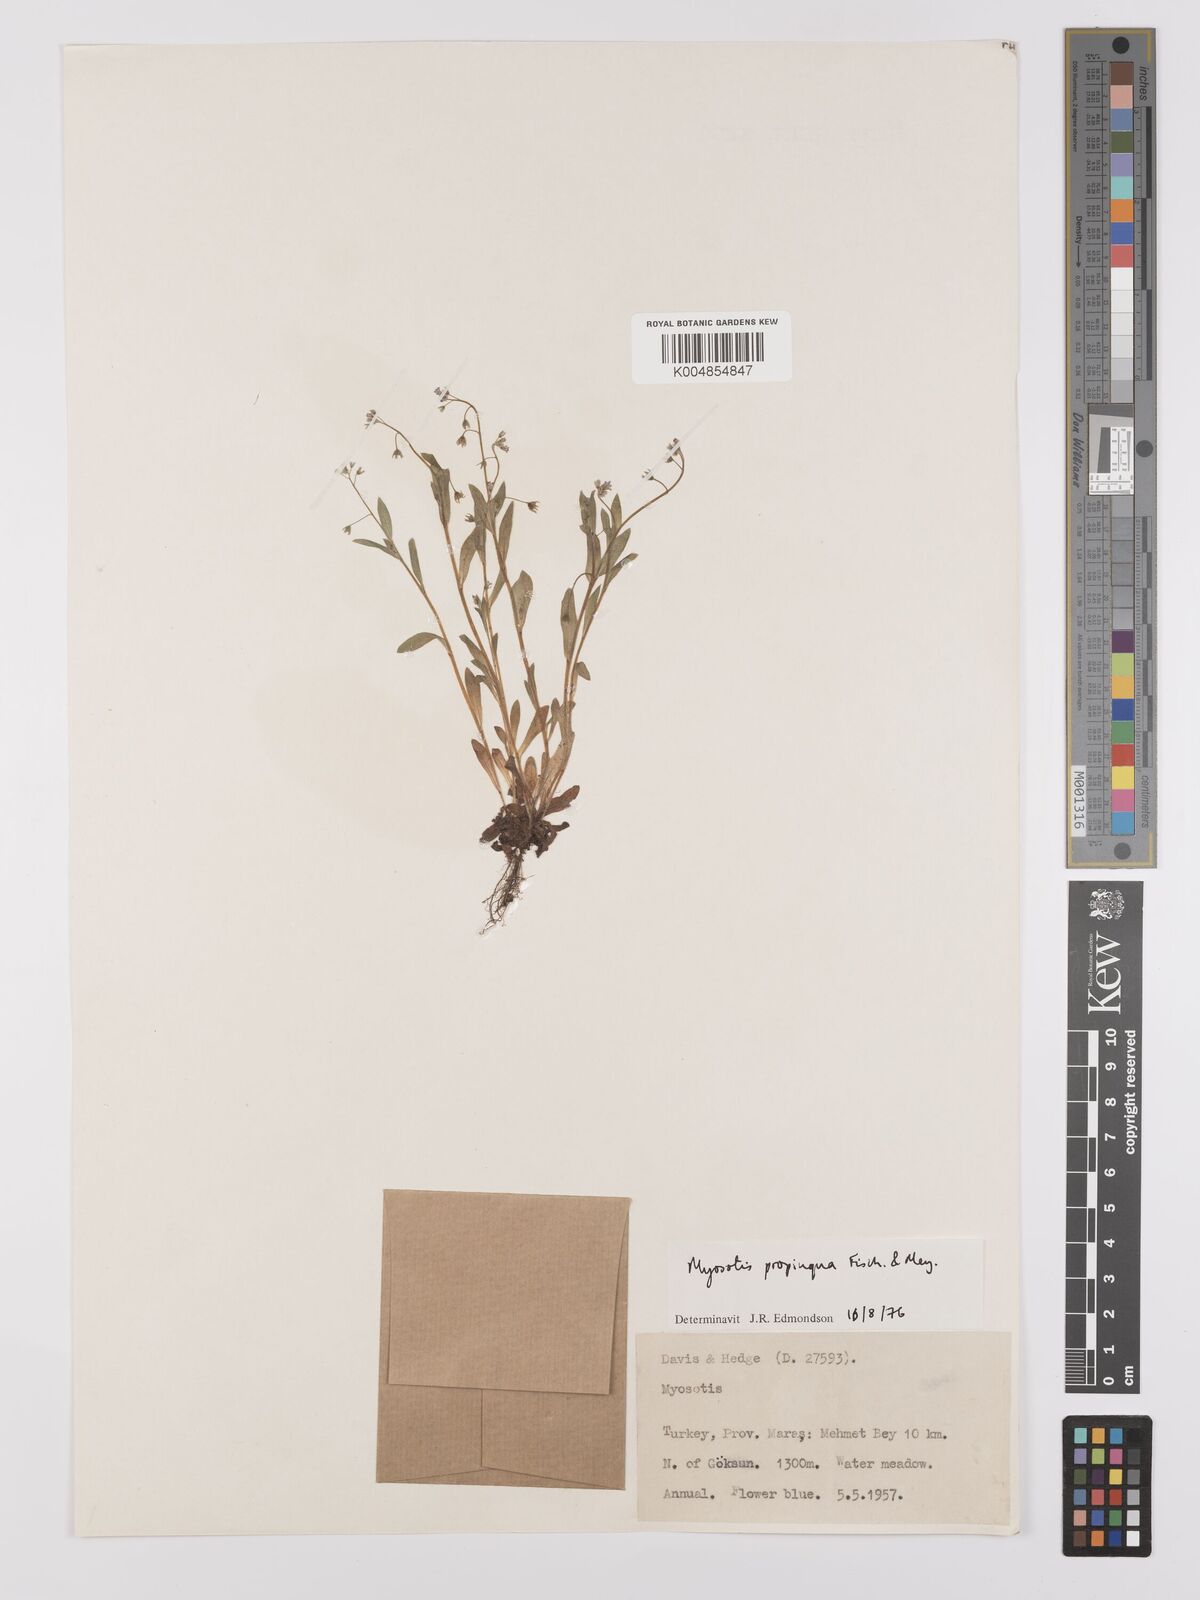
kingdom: Plantae
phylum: Tracheophyta
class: Magnoliopsida
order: Boraginales
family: Boraginaceae
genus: Myosotis
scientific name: Myosotis propinqua
